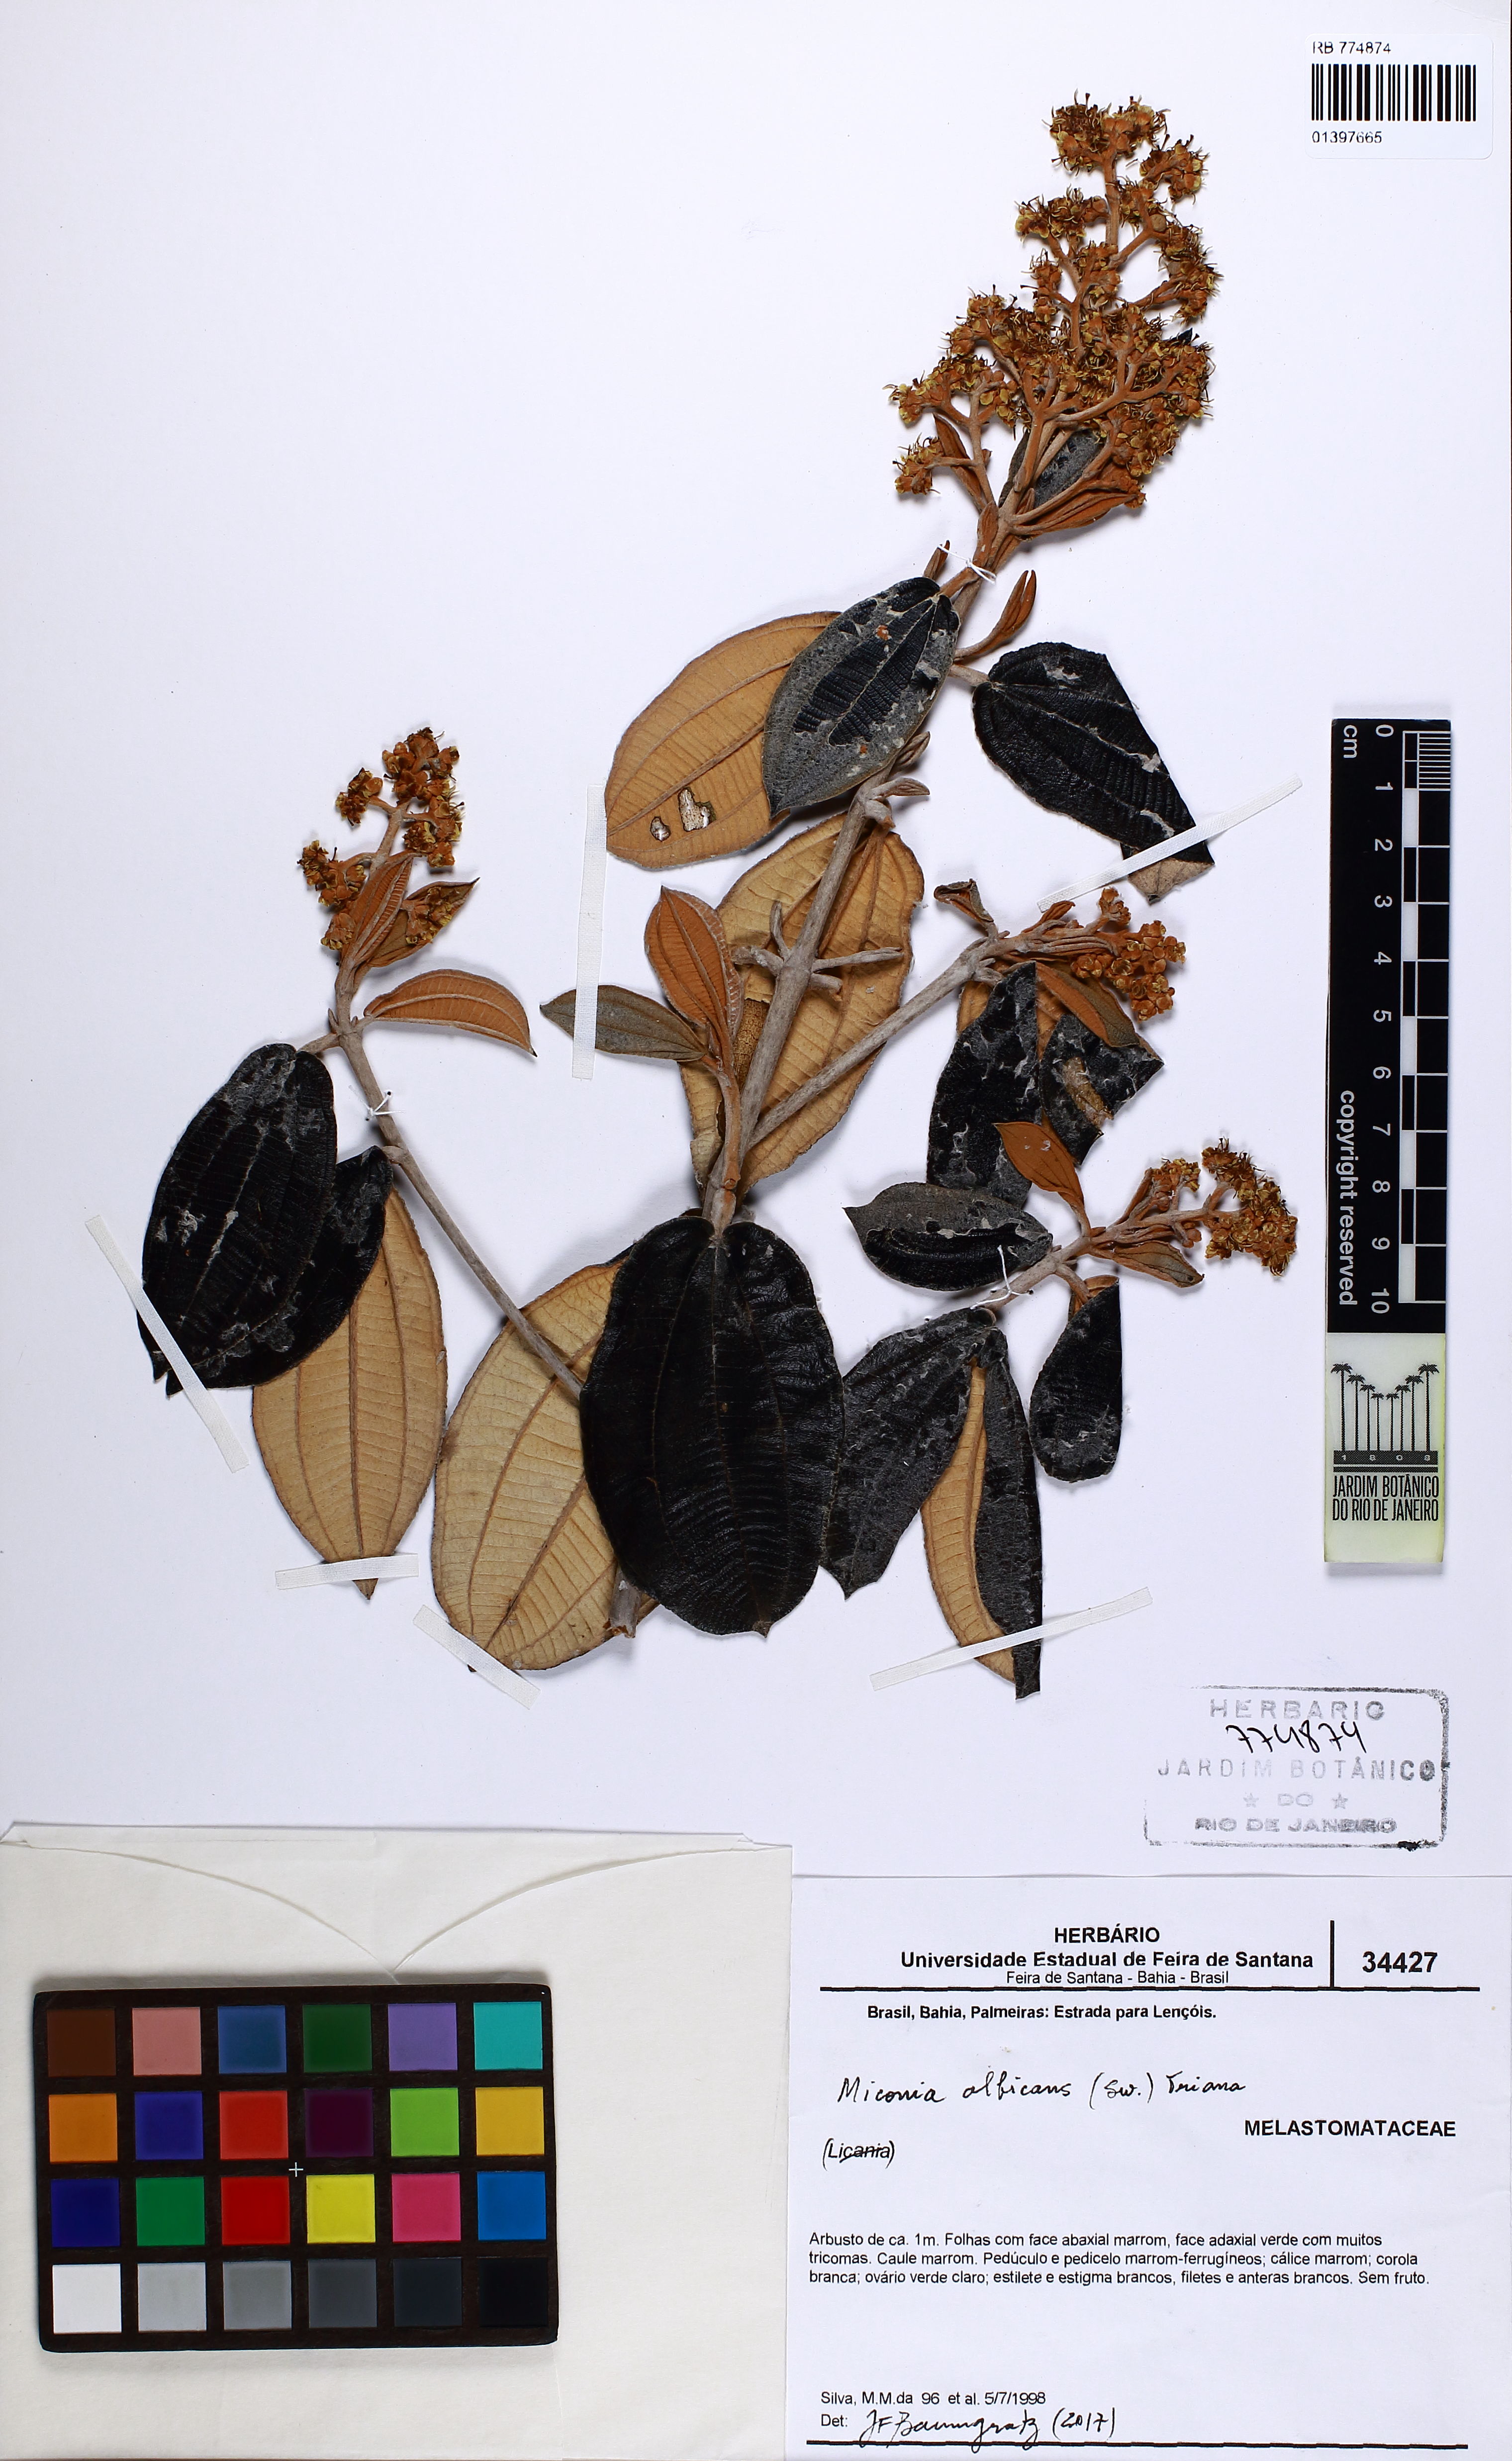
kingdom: Plantae
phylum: Tracheophyta
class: Magnoliopsida
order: Myrtales
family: Melastomataceae
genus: Miconia
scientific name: Miconia albicans
